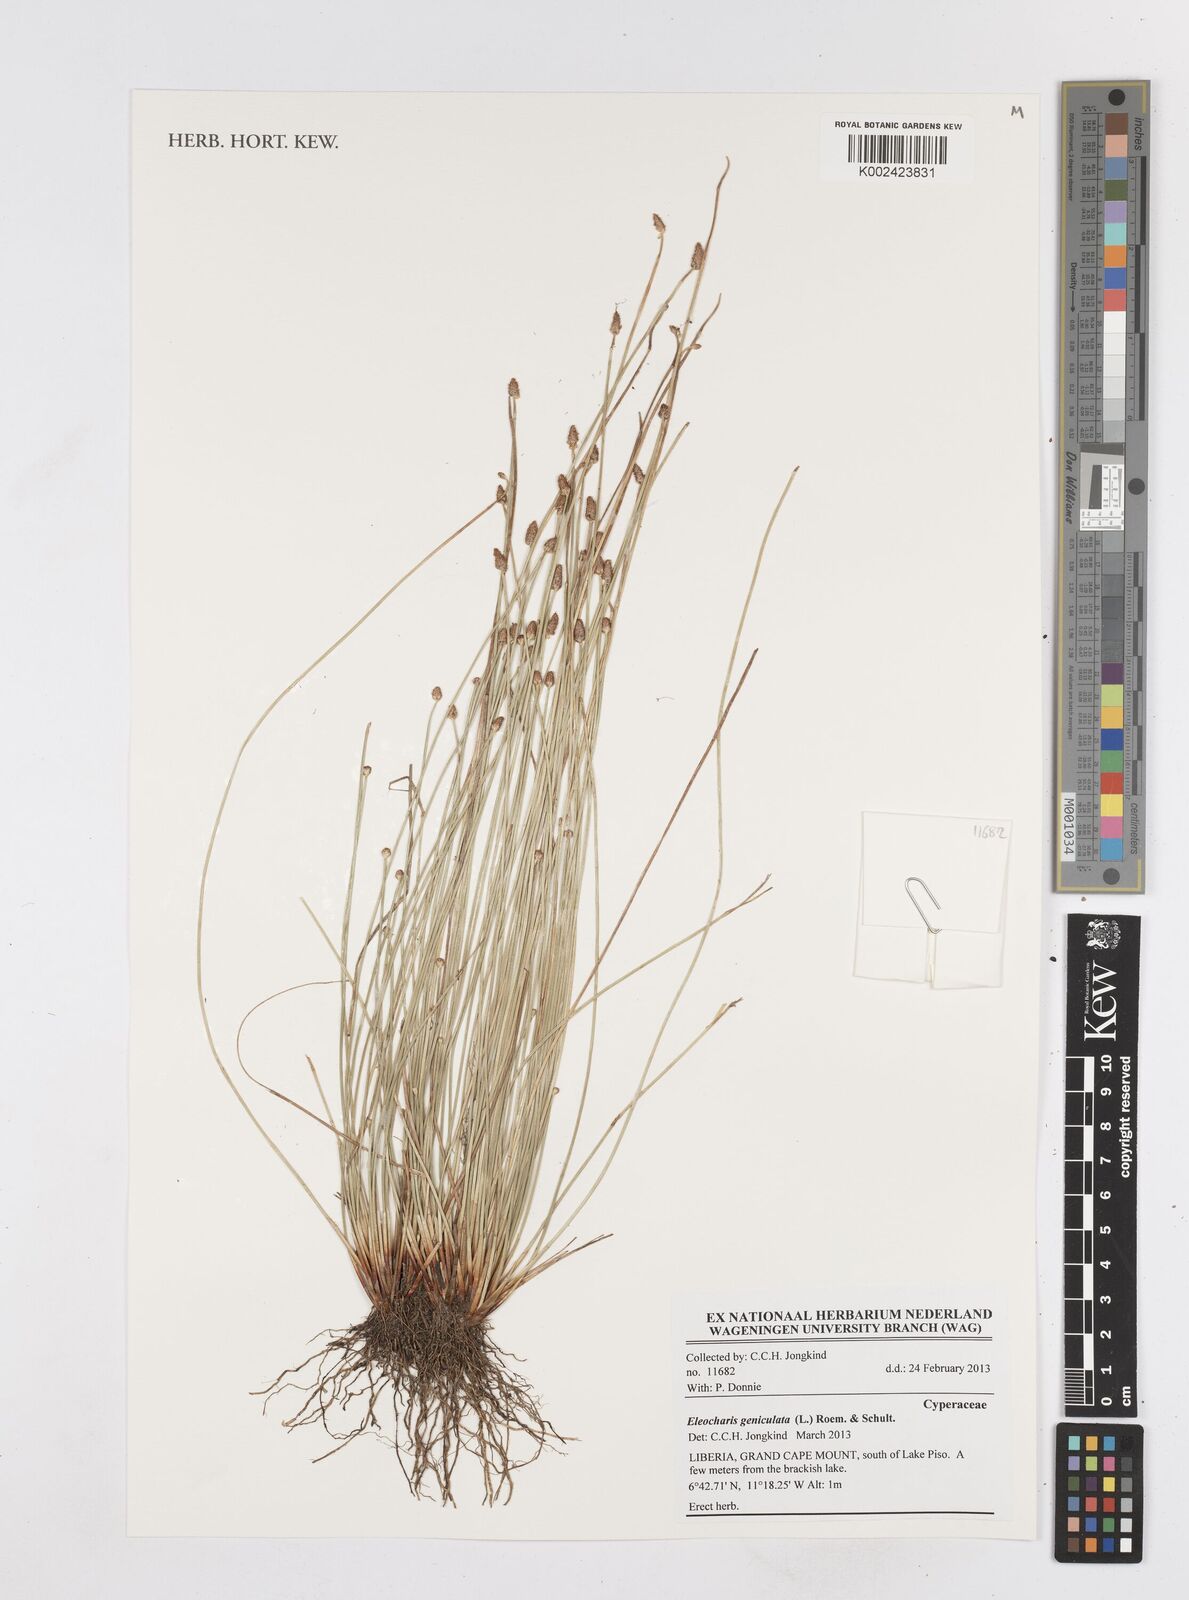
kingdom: Plantae
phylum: Tracheophyta
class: Liliopsida
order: Poales
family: Cyperaceae
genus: Eleocharis
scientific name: Eleocharis geniculata
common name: Canada spikesedge
